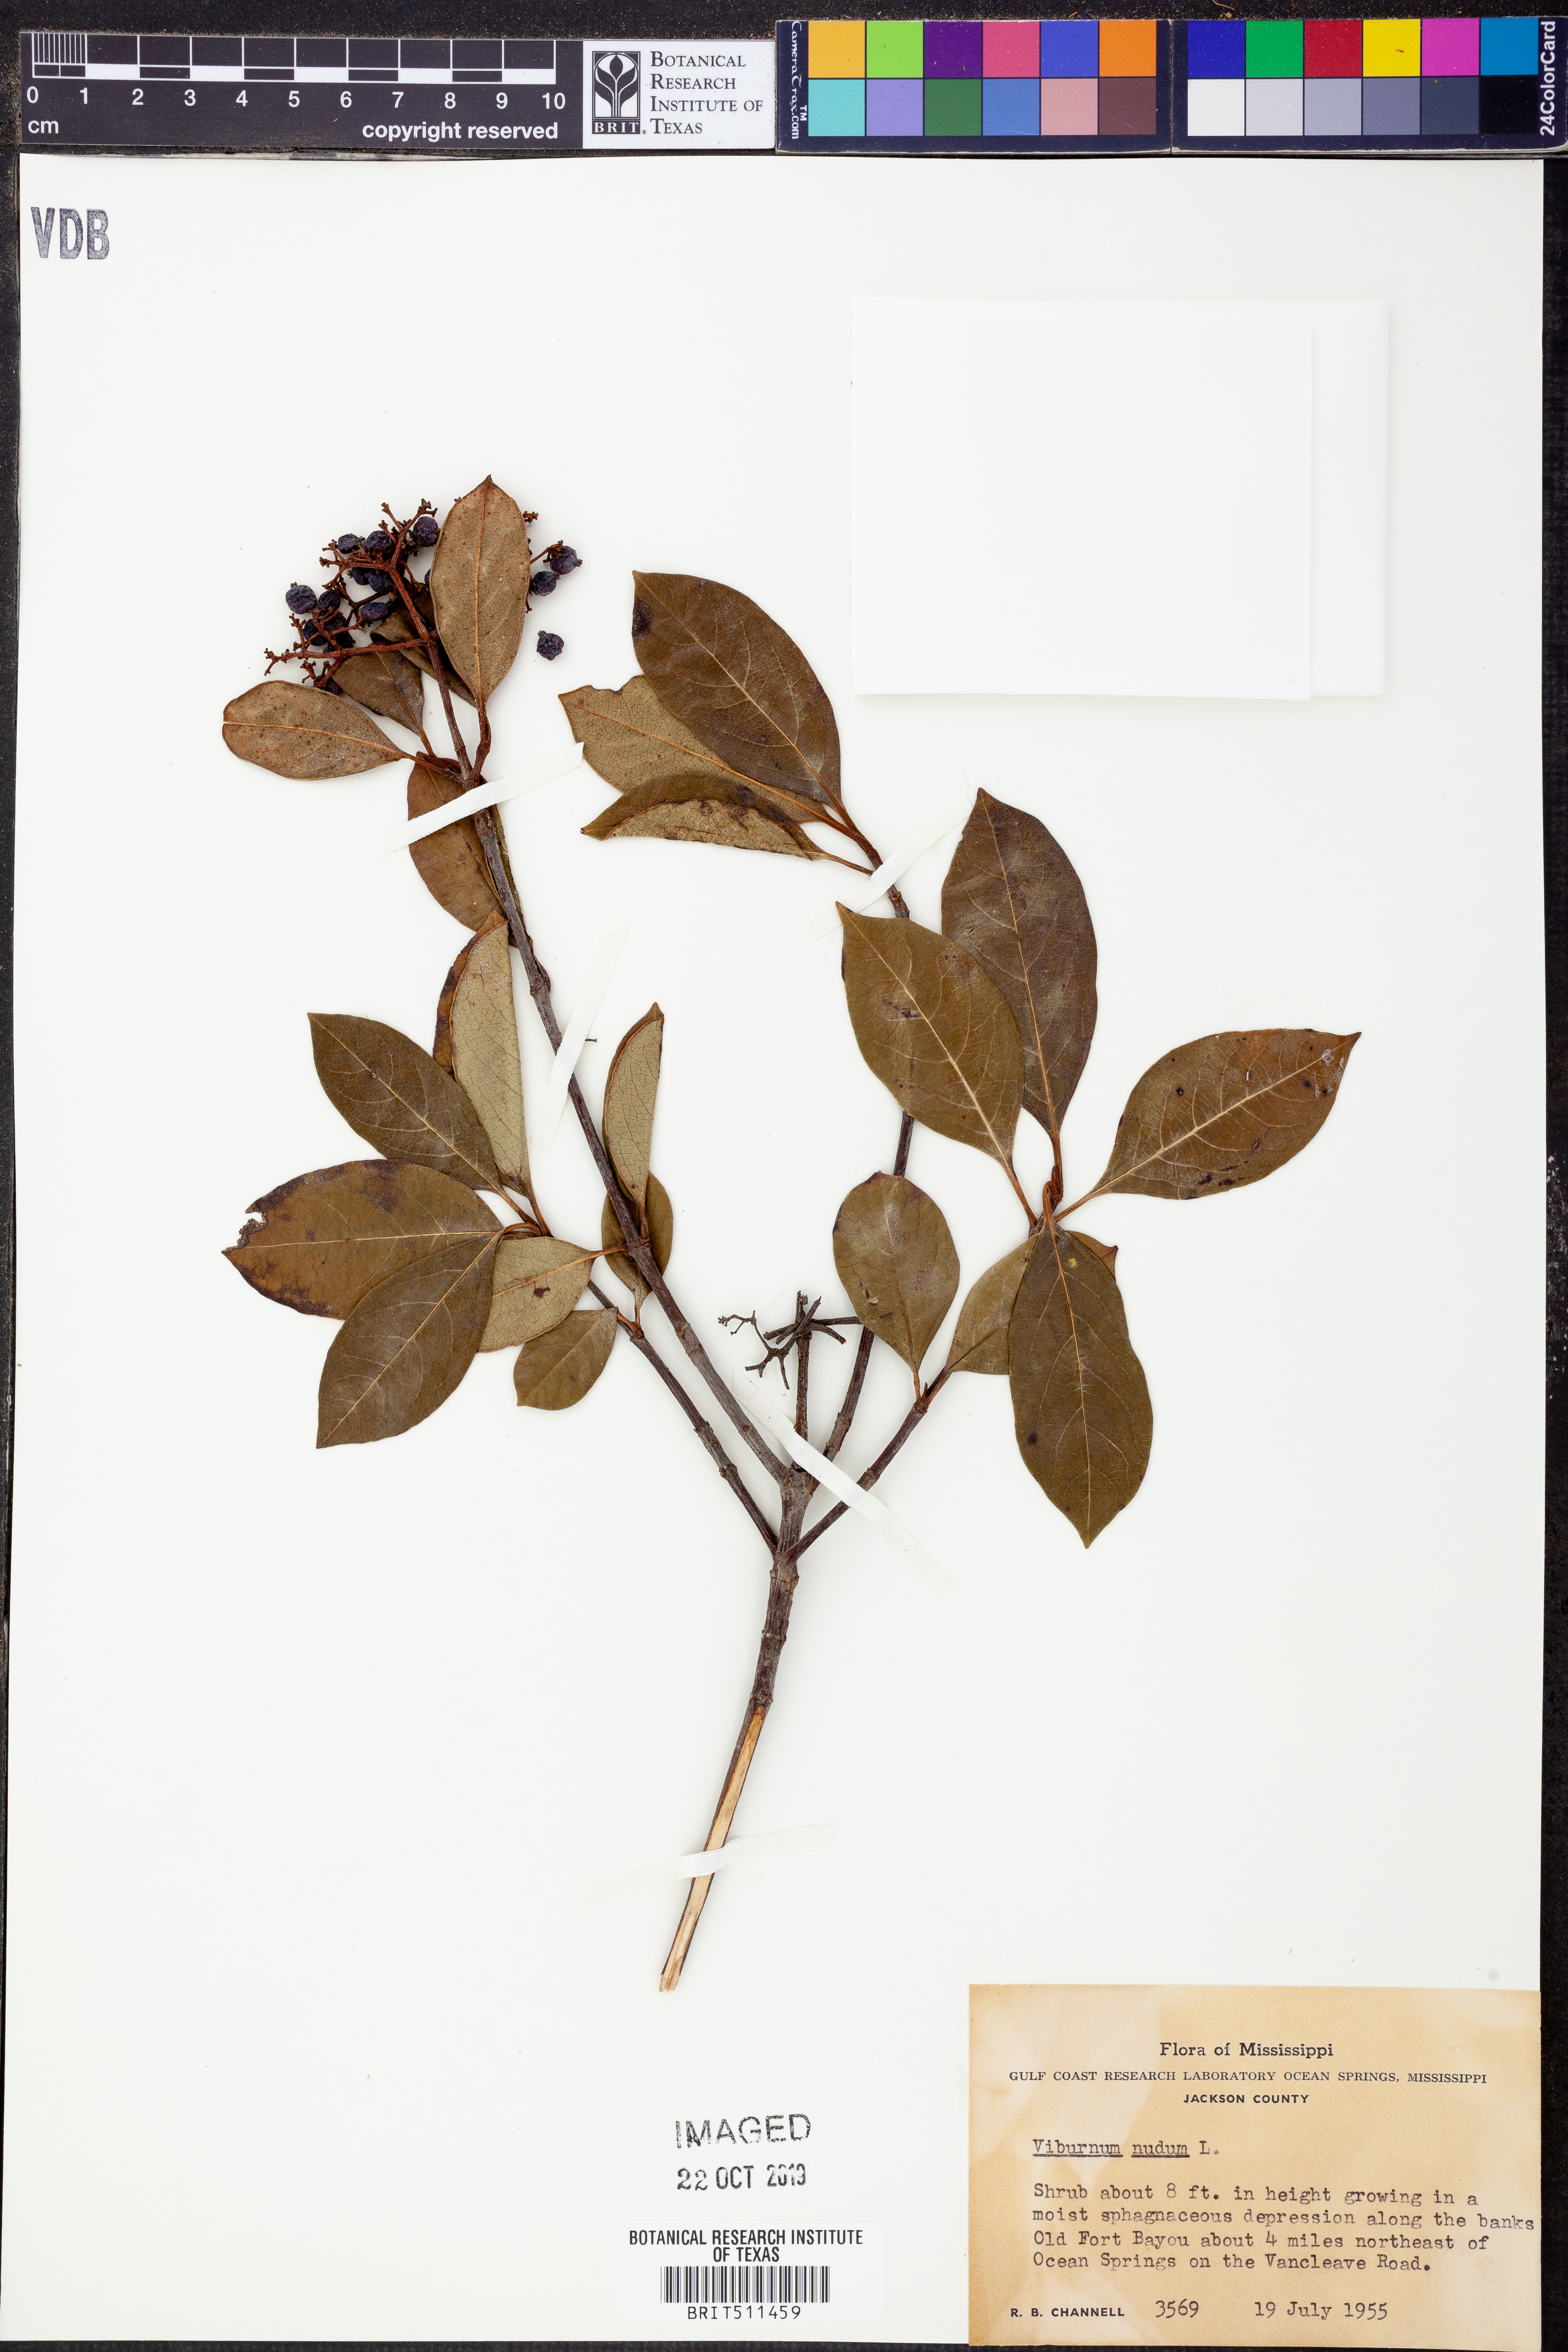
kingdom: Plantae
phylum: Tracheophyta
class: Magnoliopsida
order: Dipsacales
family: Viburnaceae
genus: Viburnum
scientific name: Viburnum nudum
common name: Possum haw
